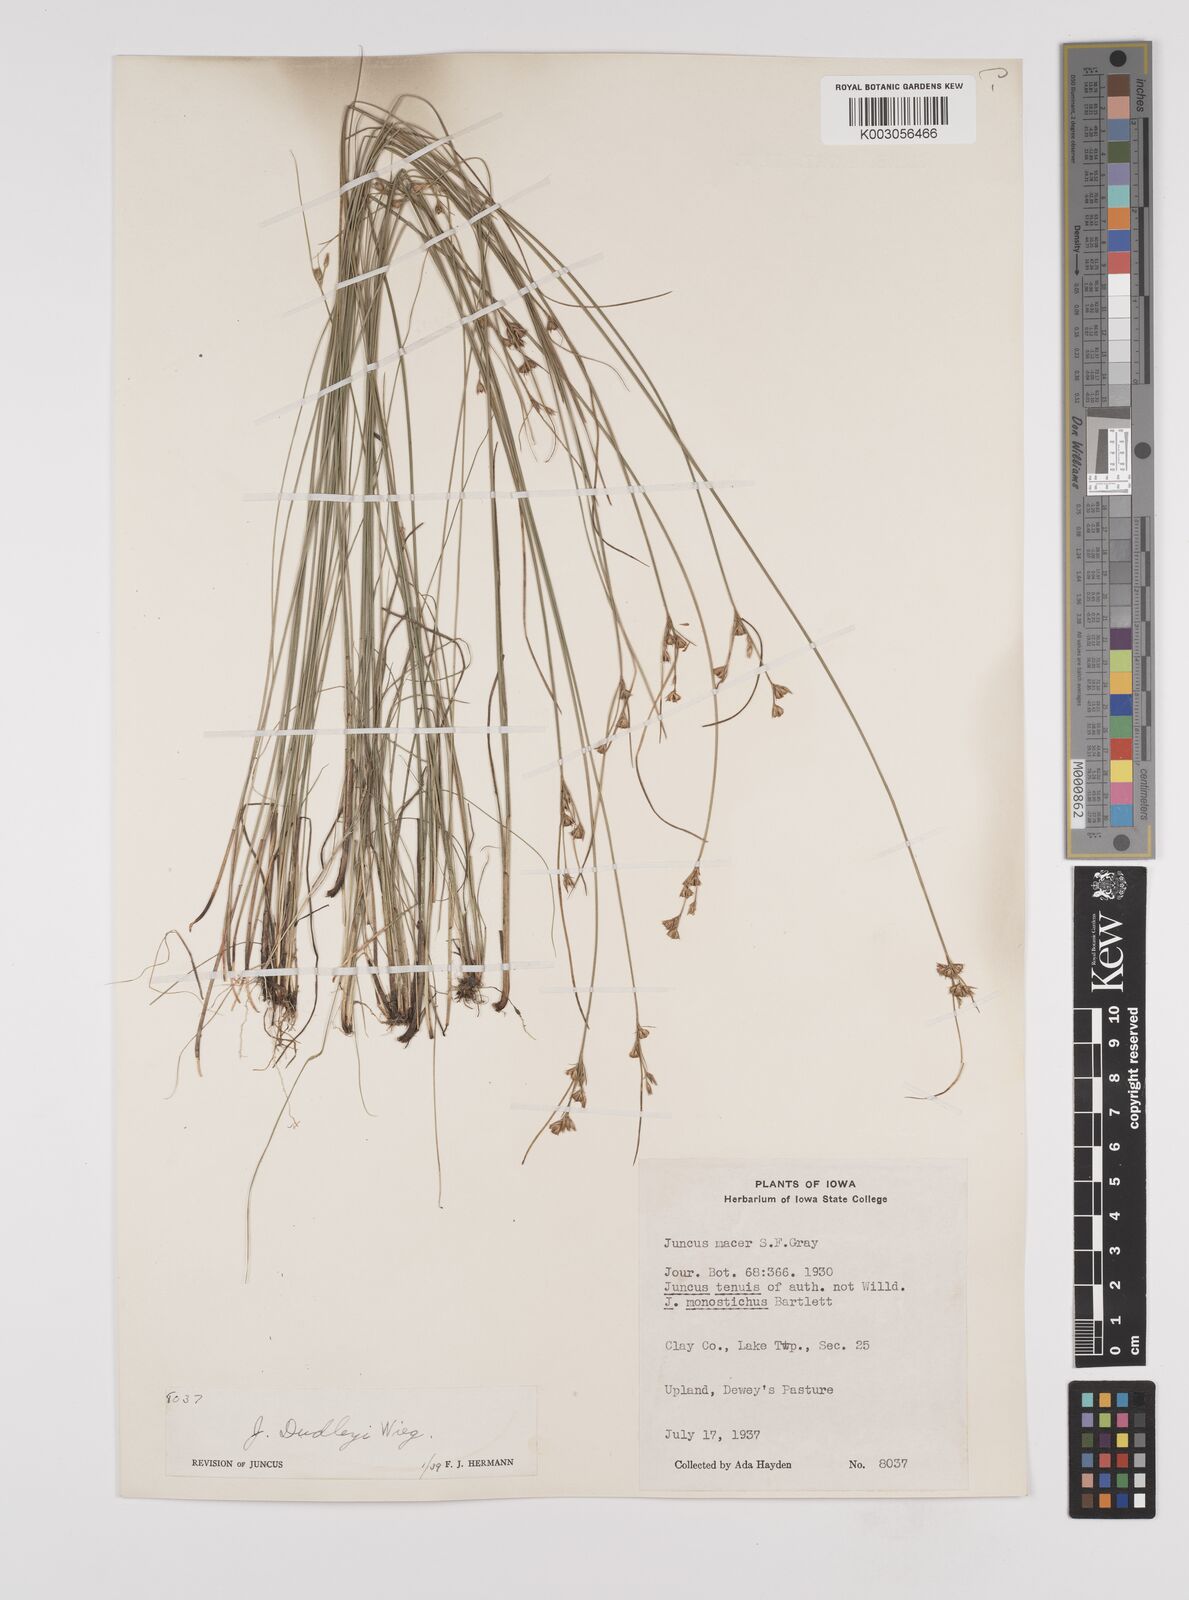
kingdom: Plantae
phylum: Tracheophyta
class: Liliopsida
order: Poales
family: Juncaceae
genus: Juncus
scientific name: Juncus dudleyi
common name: Dudley's rush
